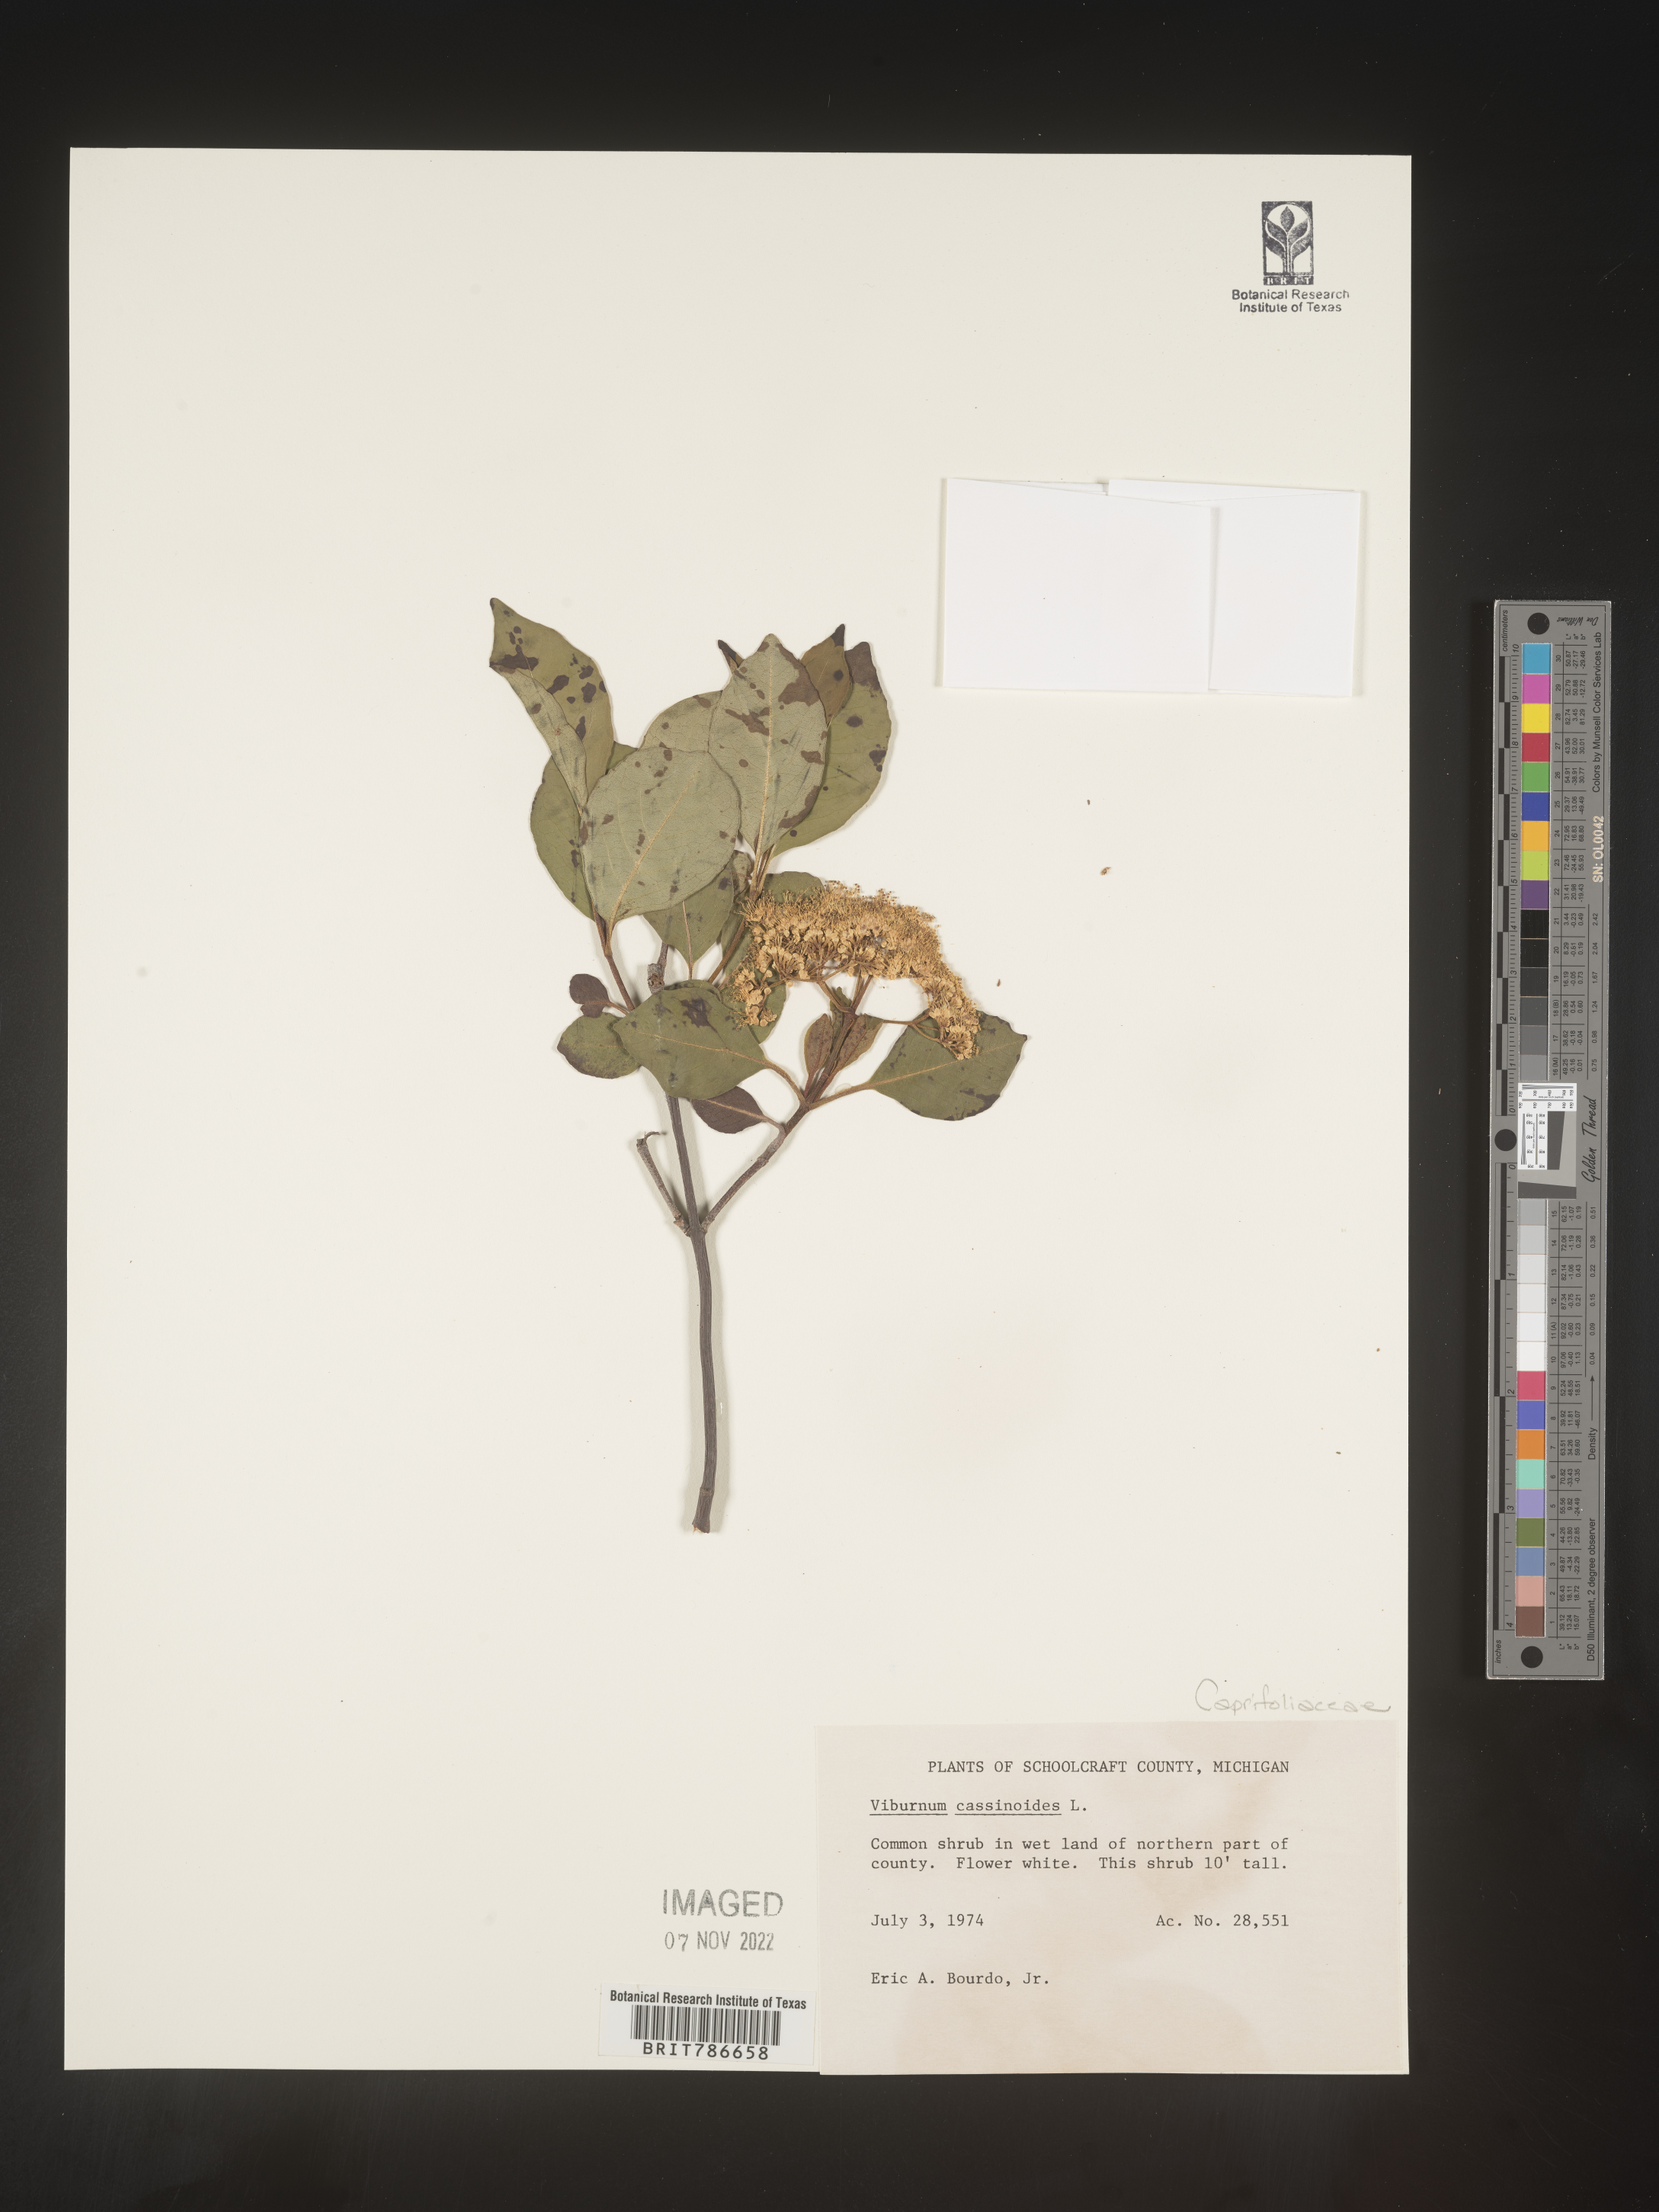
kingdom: Plantae
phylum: Tracheophyta
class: Magnoliopsida
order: Dipsacales
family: Viburnaceae
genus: Viburnum
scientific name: Viburnum cassinoides
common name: Swamp haw
